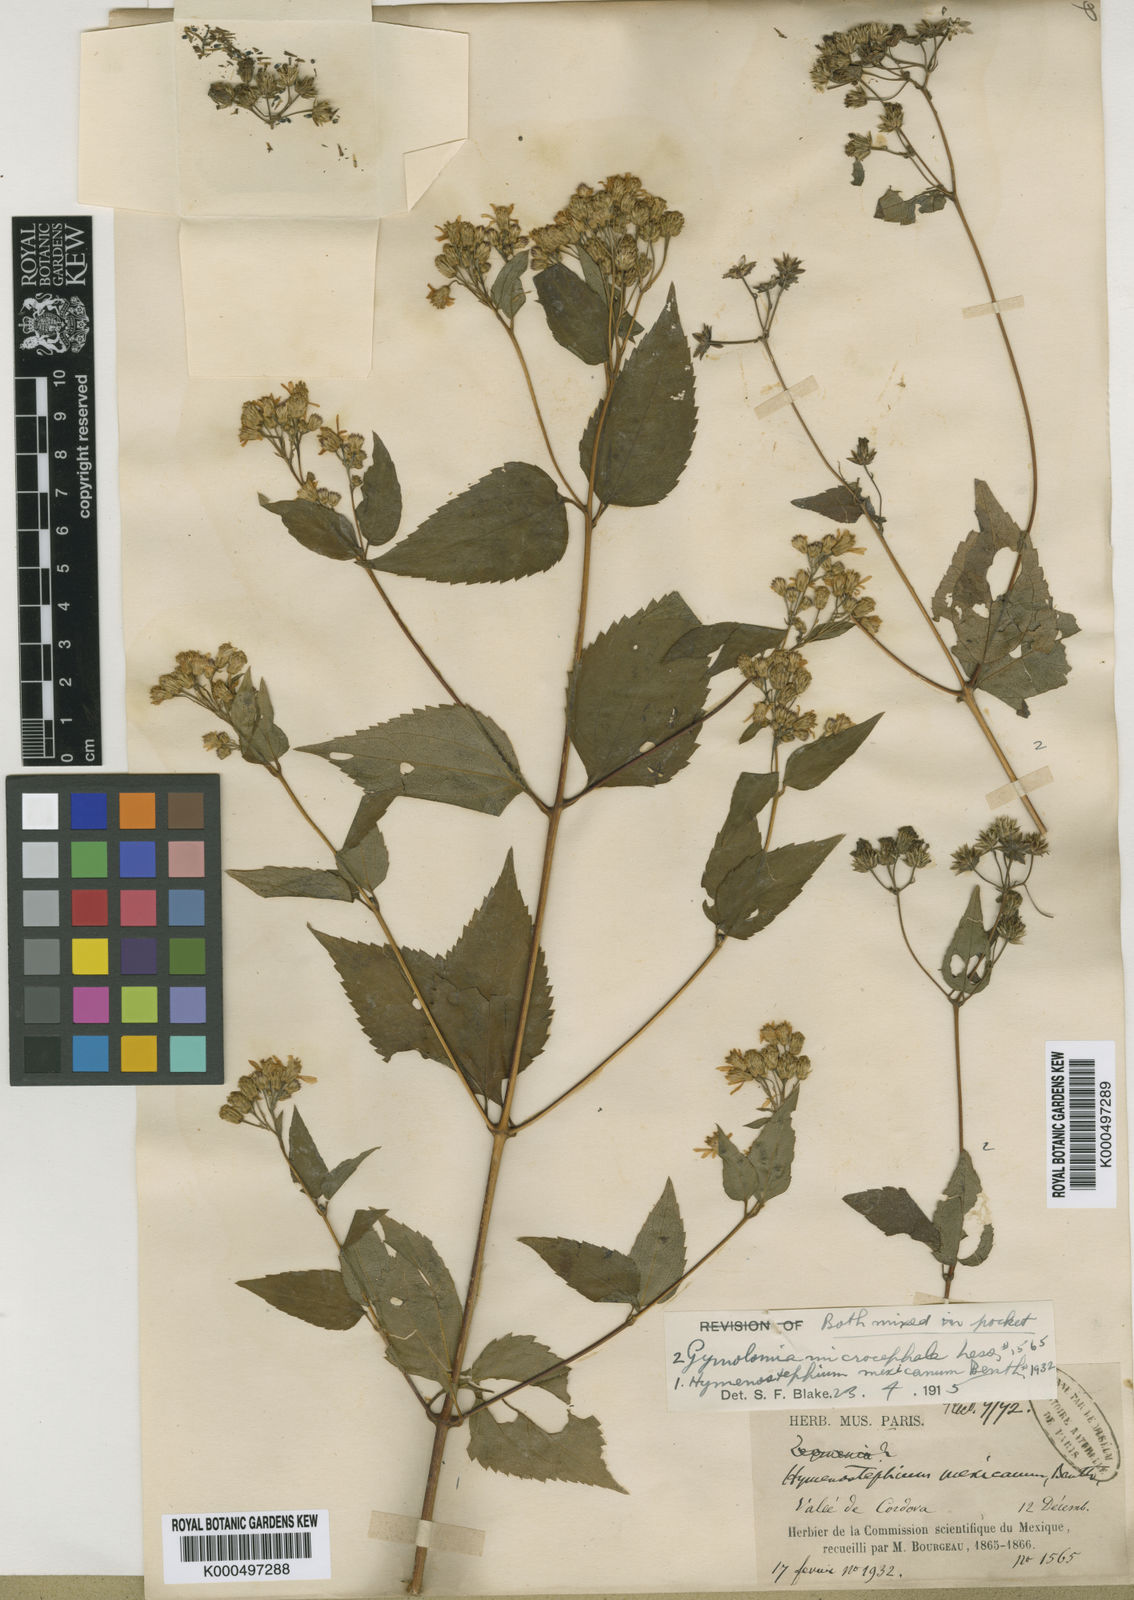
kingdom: Plantae
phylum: Tracheophyta
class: Magnoliopsida
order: Asterales
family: Asteraceae
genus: Hymenostephium
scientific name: Hymenostephium cordatum
